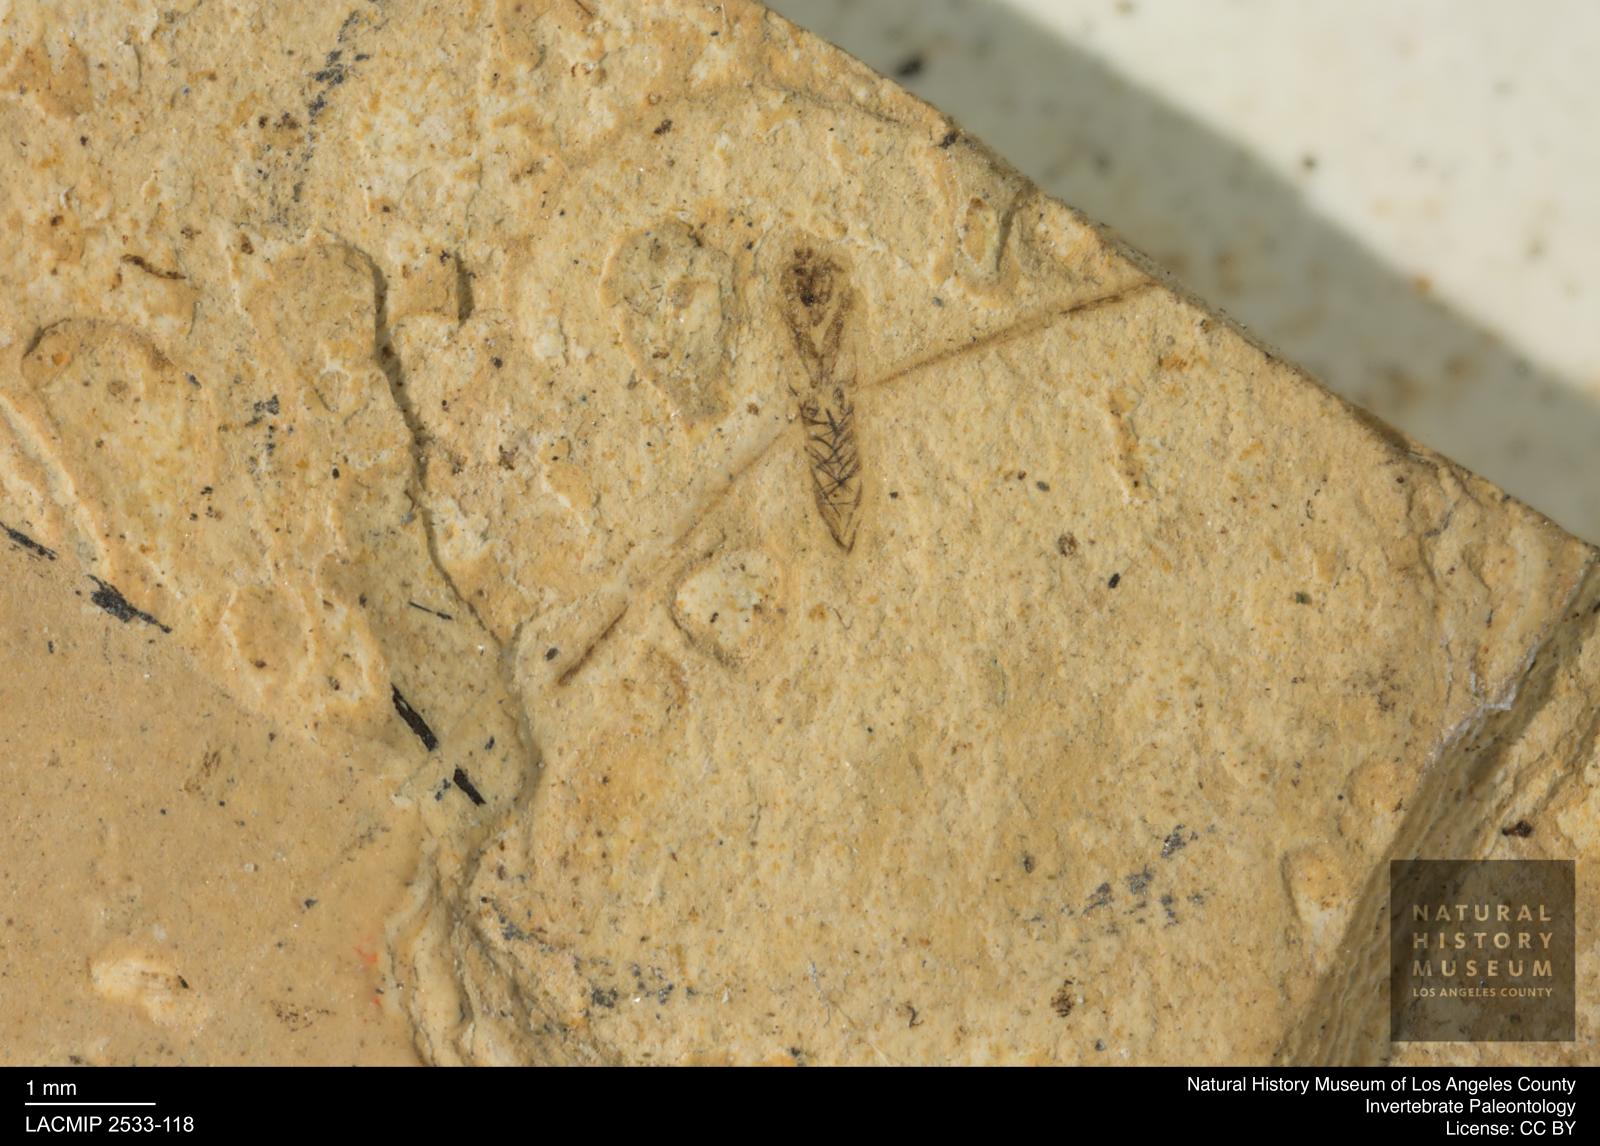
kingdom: Animalia
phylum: Arthropoda
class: Insecta
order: Hemiptera
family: Notonectidae
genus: Anisops
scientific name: Anisops Notonecta heydeni
